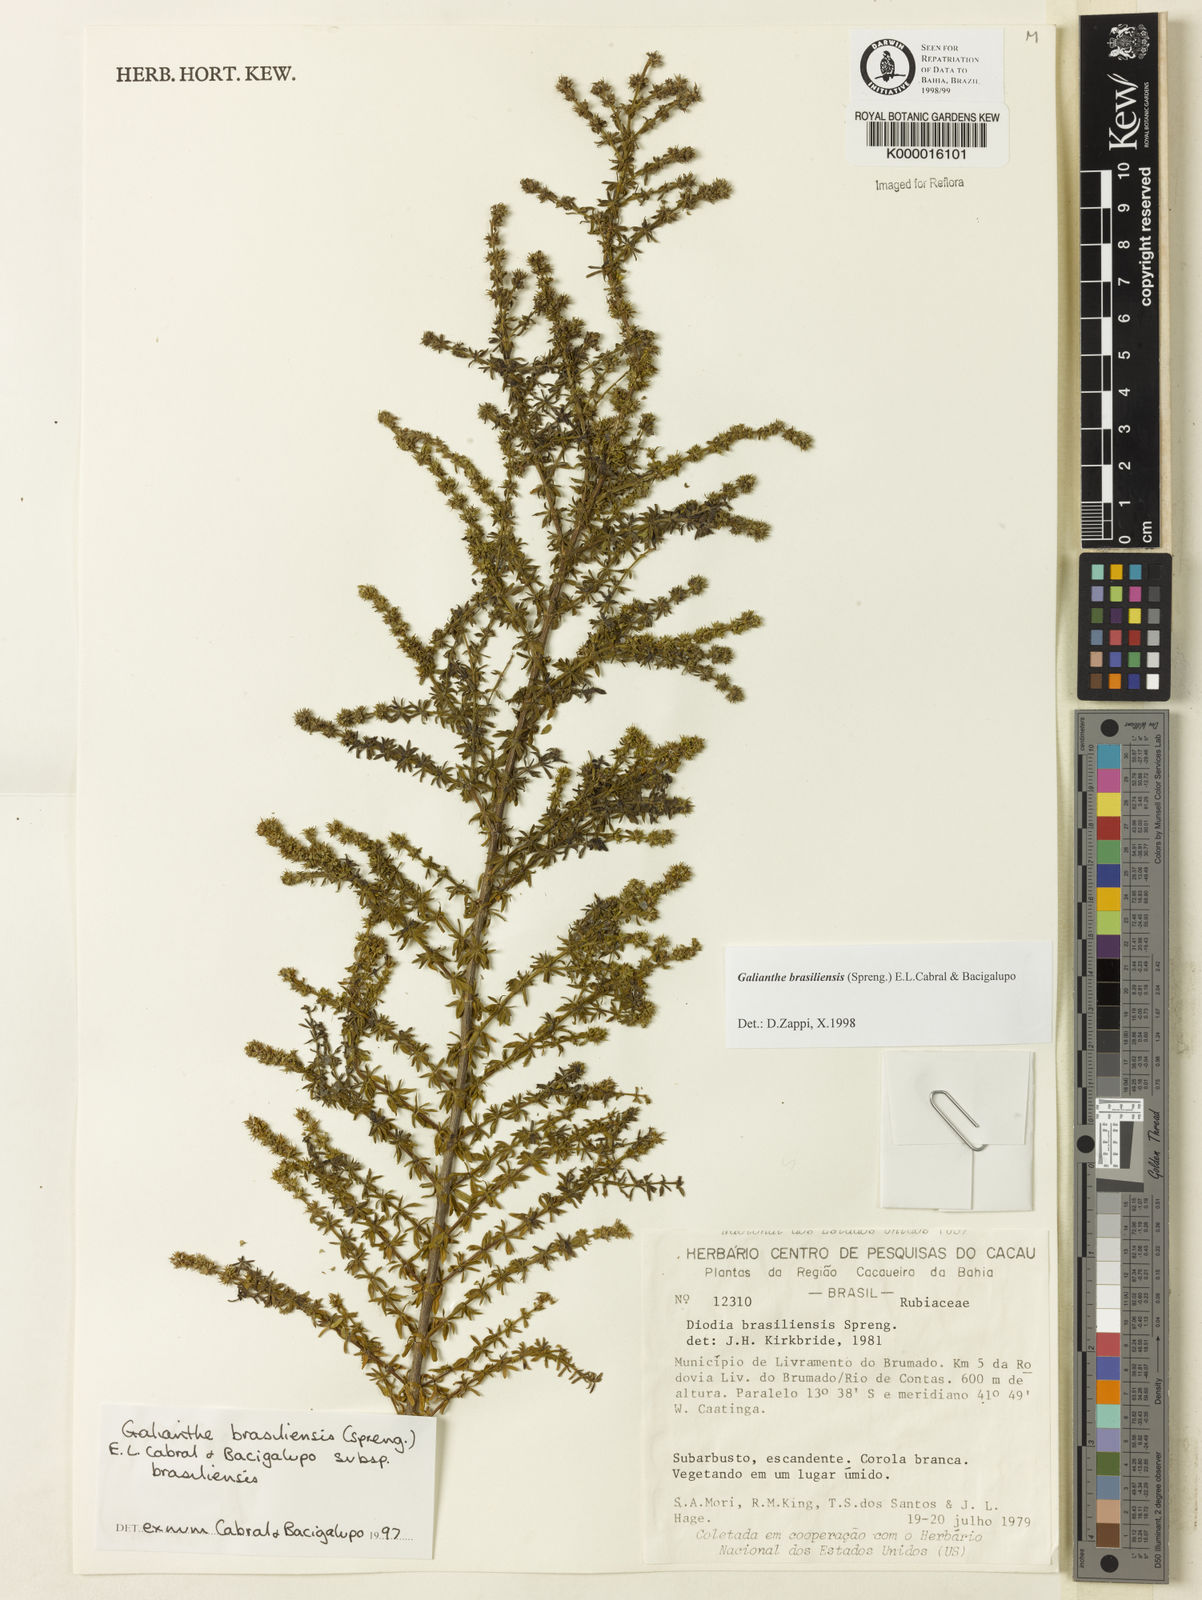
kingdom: Plantae
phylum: Tracheophyta
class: Magnoliopsida
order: Gentianales
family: Rubiaceae
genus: Galianthe
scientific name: Galianthe brasiliensis
